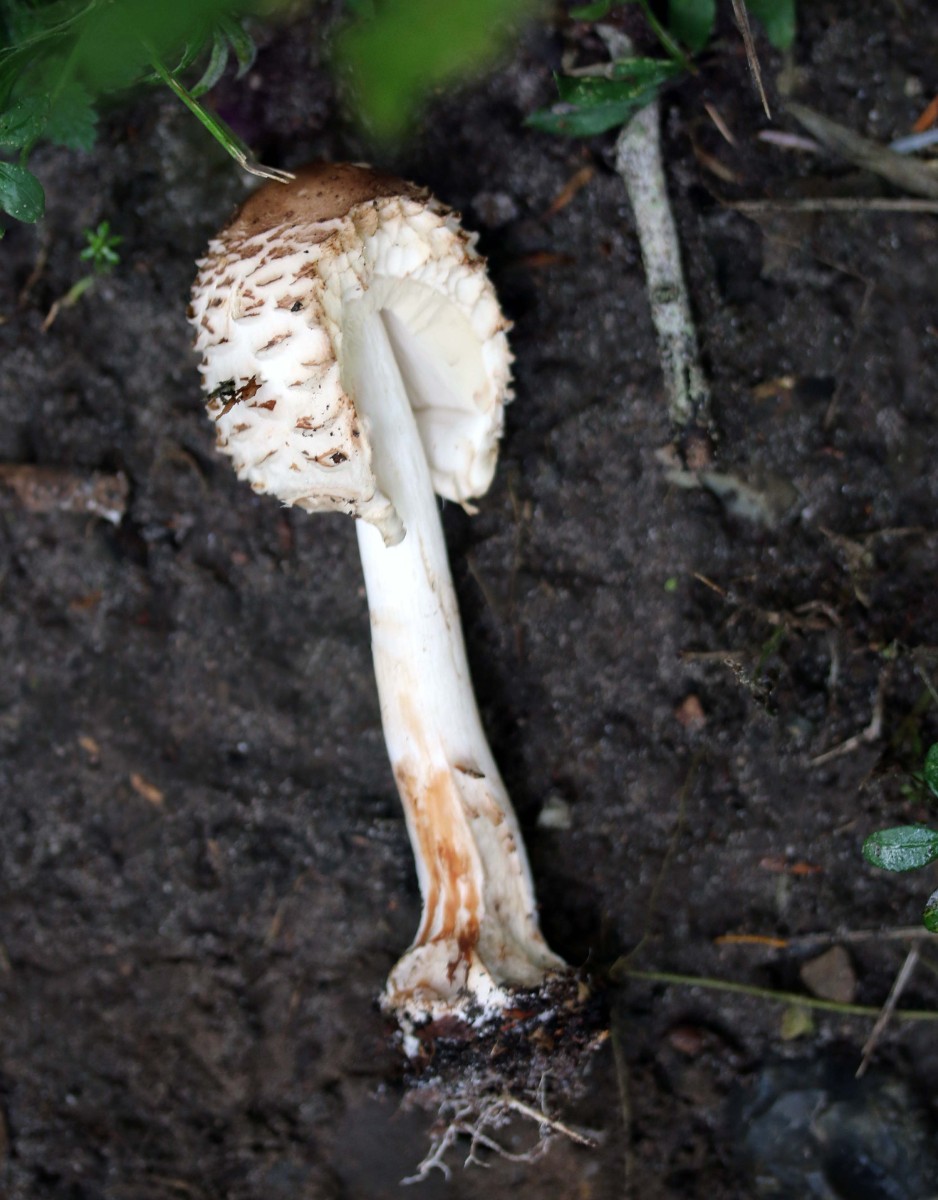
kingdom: Fungi
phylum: Basidiomycota
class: Agaricomycetes
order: Agaricales
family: Agaricaceae
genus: Chlorophyllum
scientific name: Chlorophyllum olivieri
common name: almindelig rabarberhat
